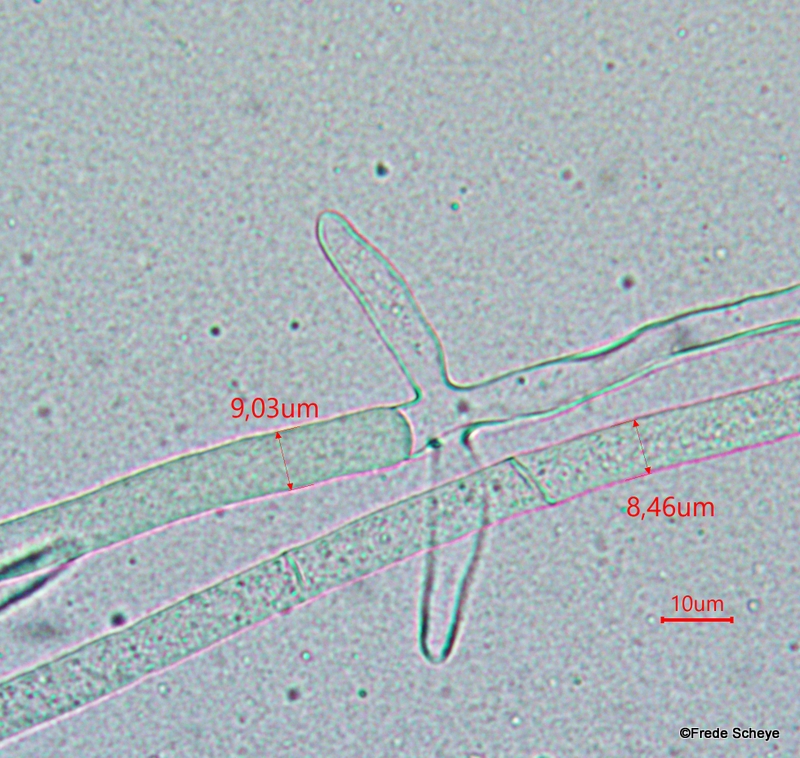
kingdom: Fungi
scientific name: Fungi
